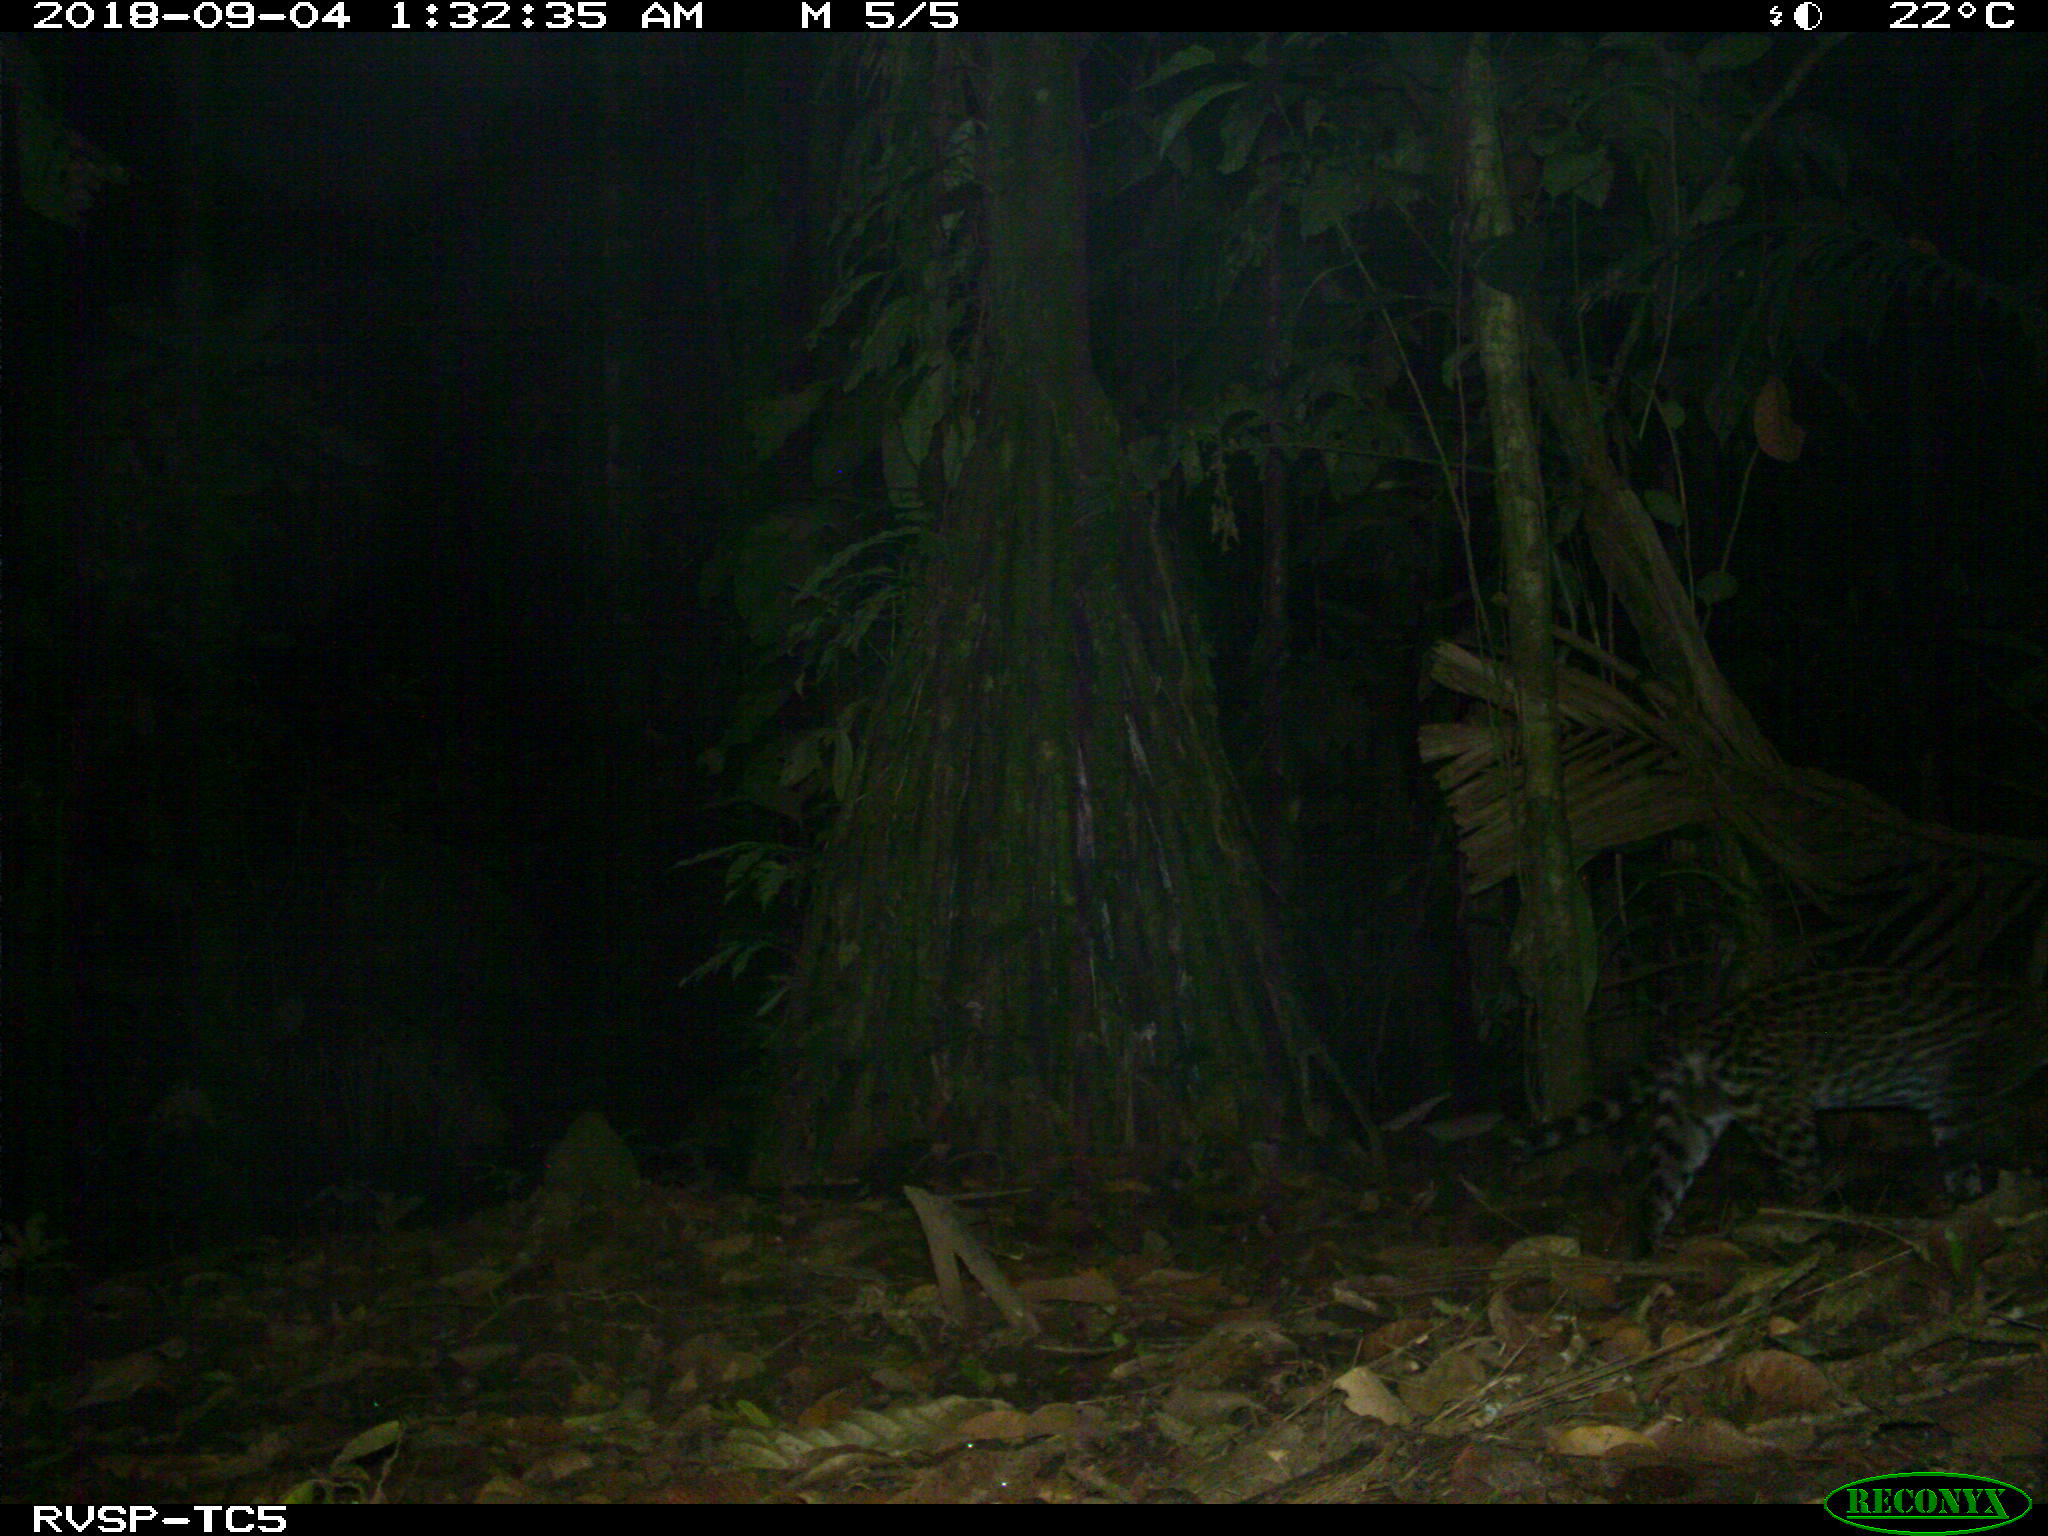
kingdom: Animalia
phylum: Chordata
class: Mammalia
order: Carnivora
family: Felidae
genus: Leopardus
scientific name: Leopardus pardalis
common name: Ocelot
